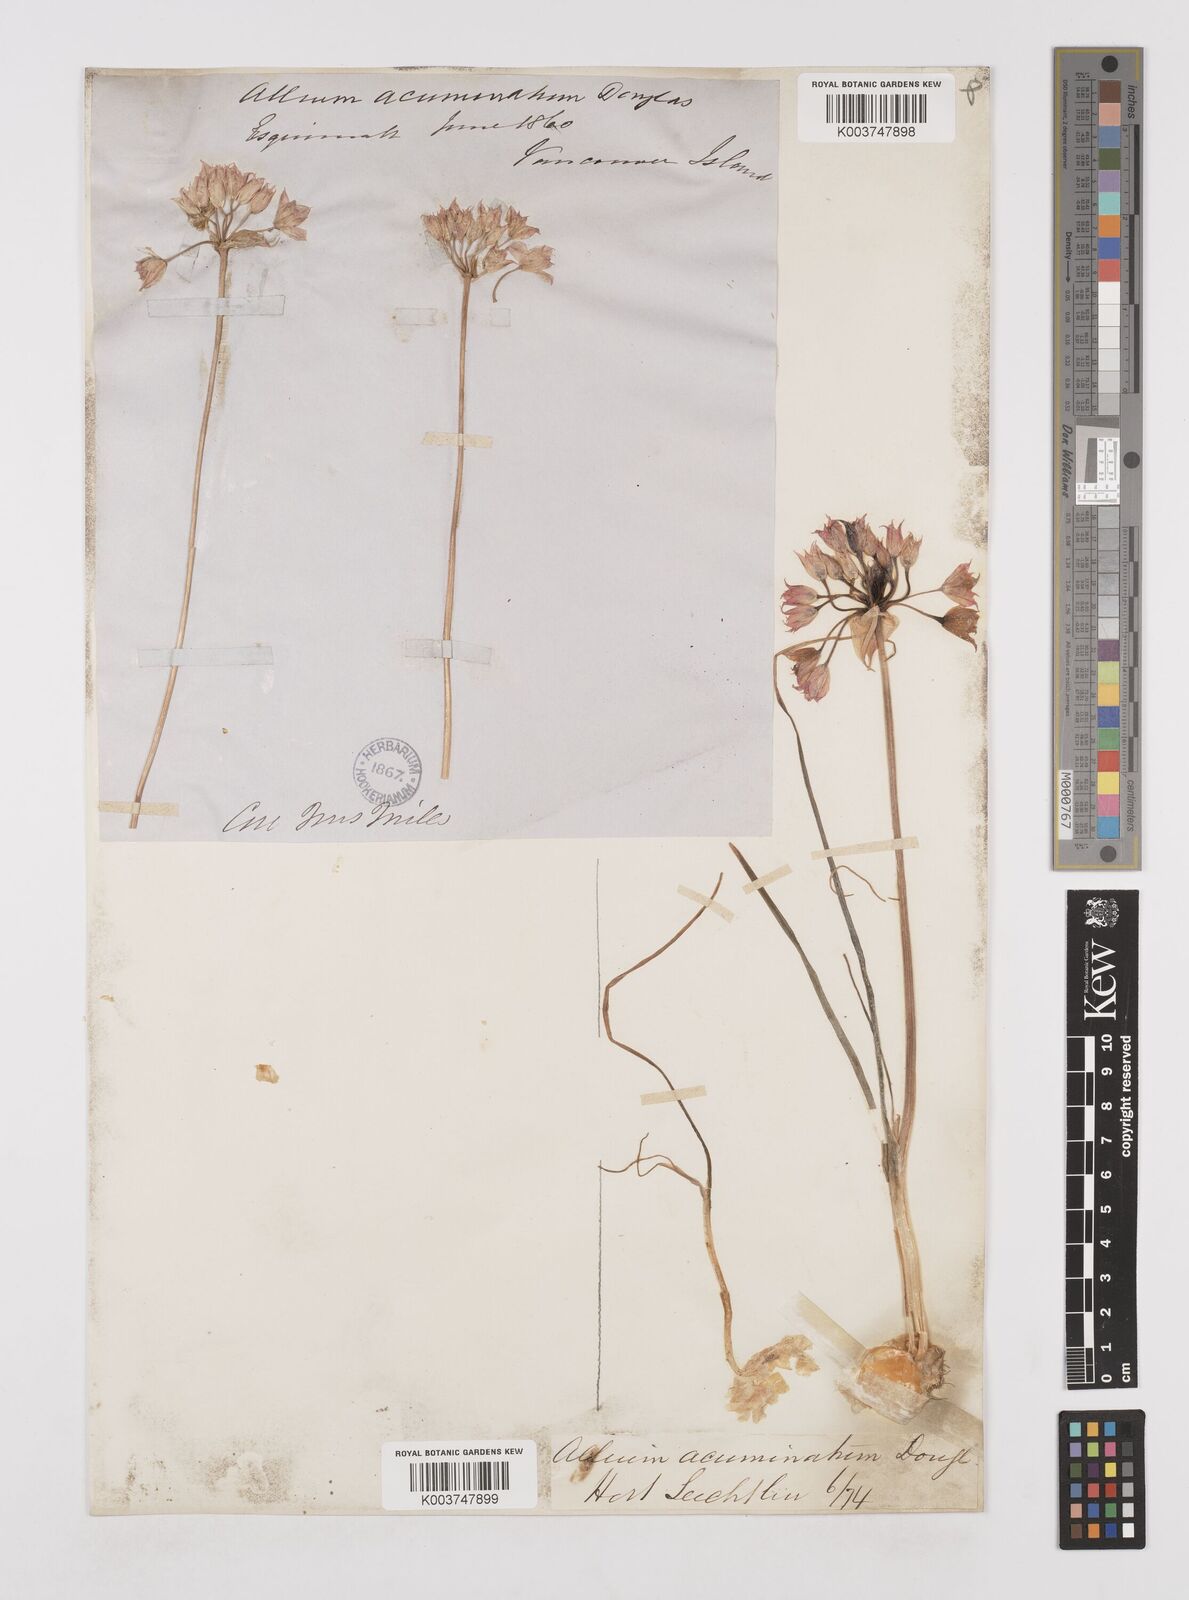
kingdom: Plantae
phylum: Tracheophyta
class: Liliopsida
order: Asparagales
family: Amaryllidaceae
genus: Allium
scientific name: Allium acuminatum
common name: Hooker's onion
